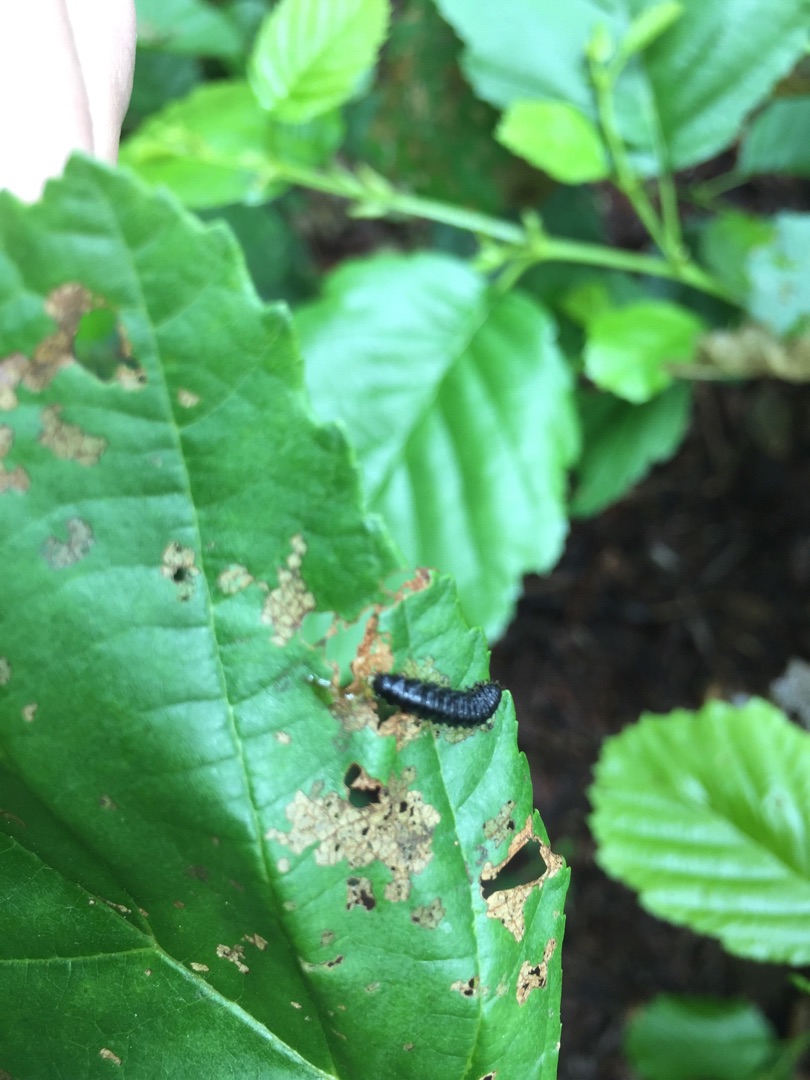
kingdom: Animalia
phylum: Arthropoda
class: Insecta
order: Coleoptera
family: Chrysomelidae
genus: Agelastica
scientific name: Agelastica alni
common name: Ellebladbille
